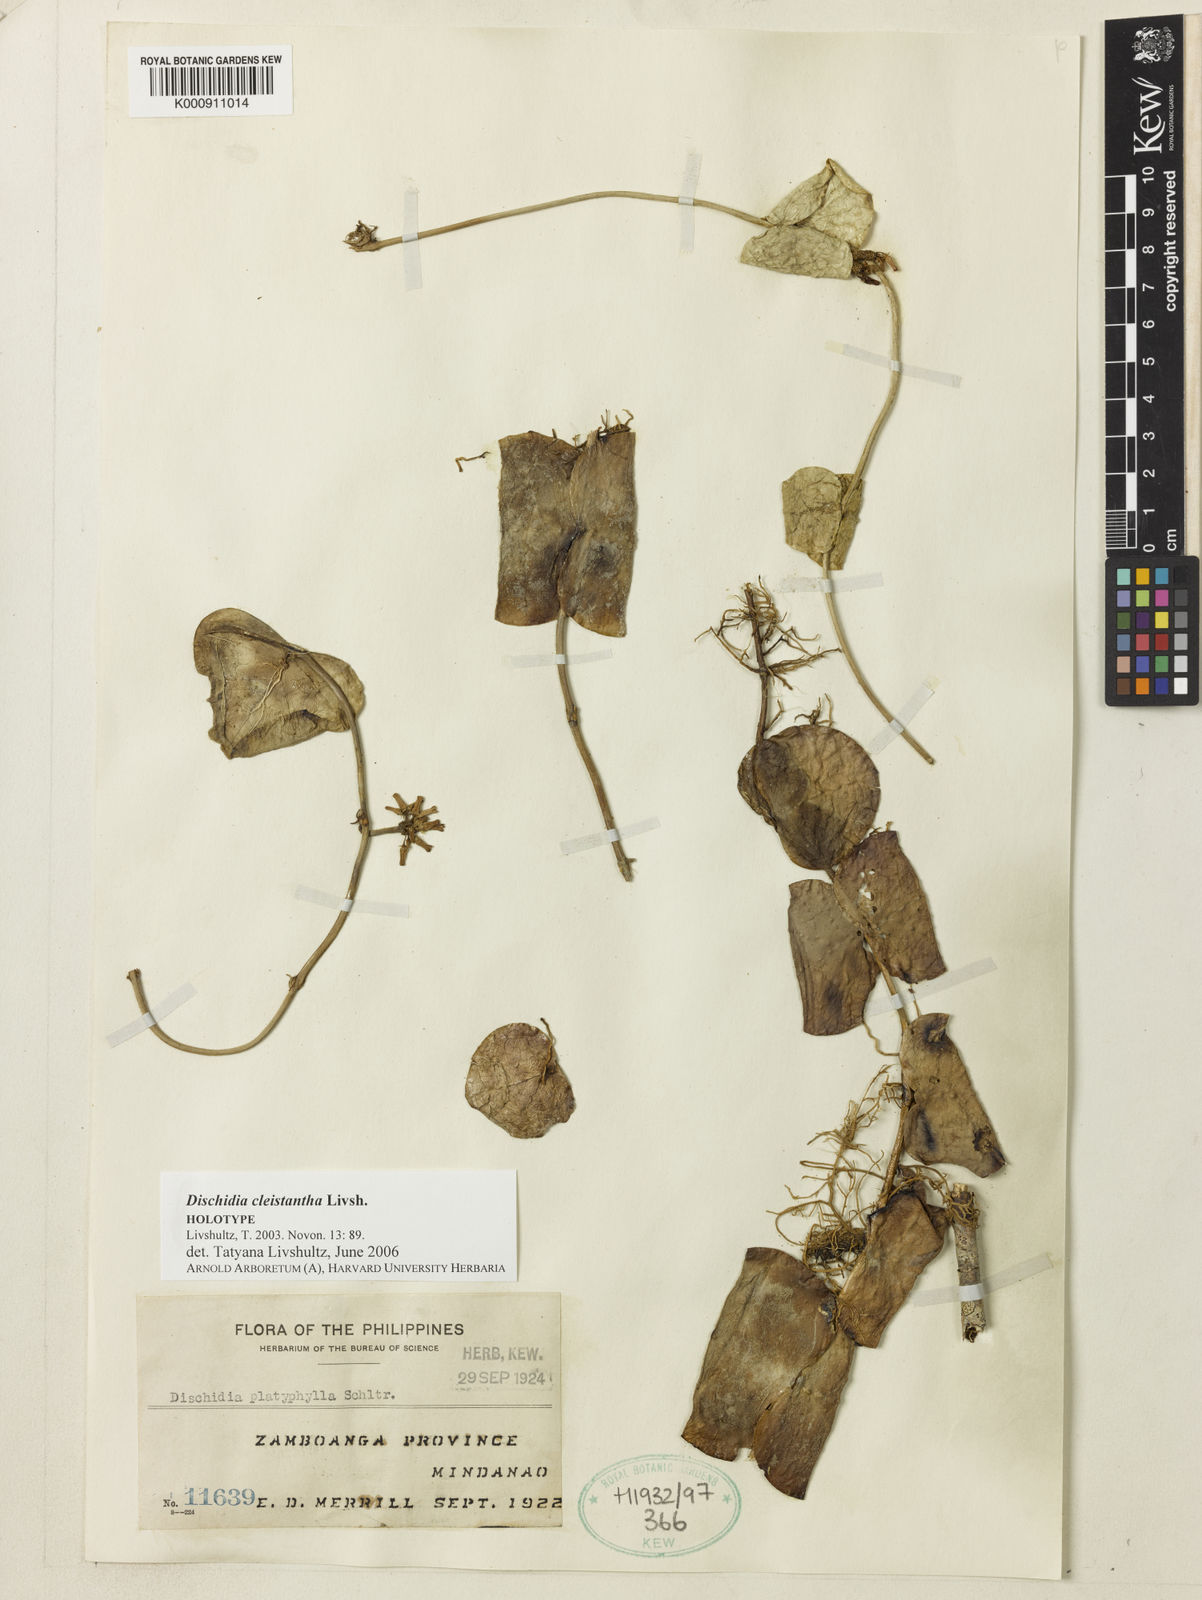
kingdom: Plantae
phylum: Tracheophyta
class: Magnoliopsida
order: Gentianales
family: Apocynaceae
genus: Dischidia
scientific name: Dischidia cleistantha
